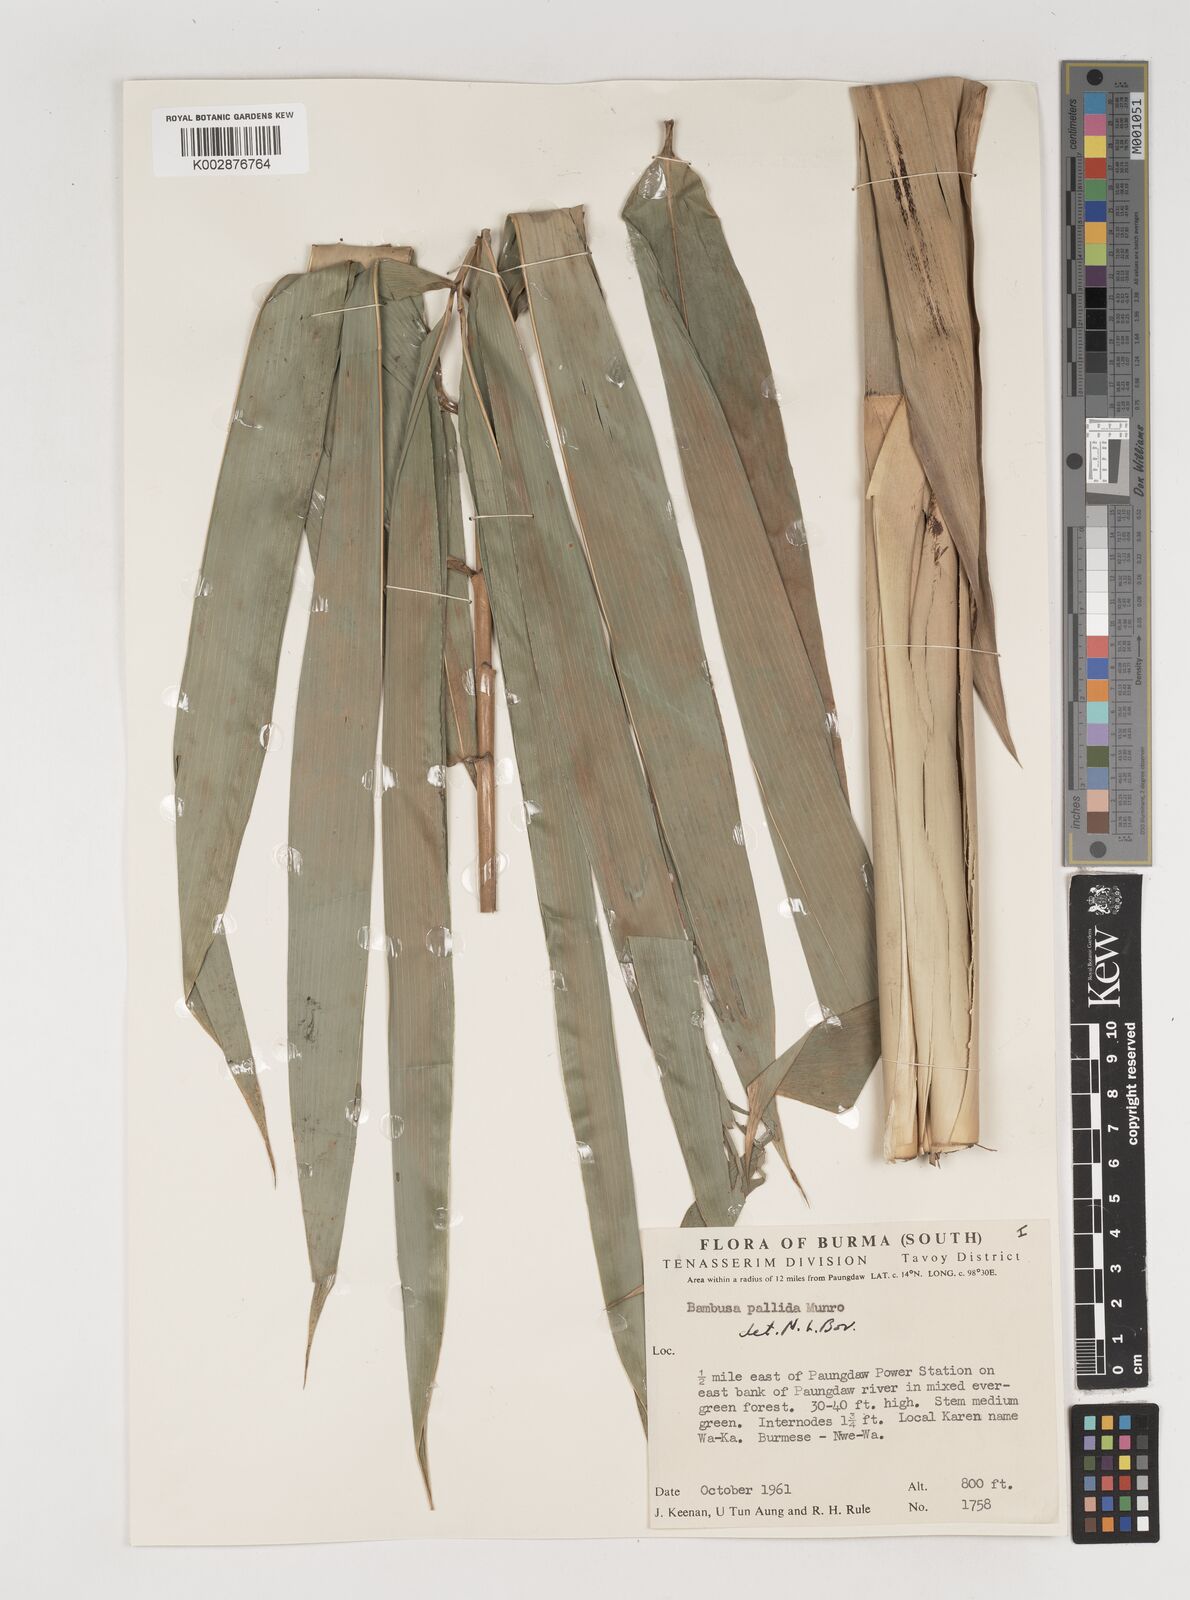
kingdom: Plantae
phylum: Tracheophyta
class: Liliopsida
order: Poales
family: Poaceae
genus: Bambusa
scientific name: Bambusa pallida
